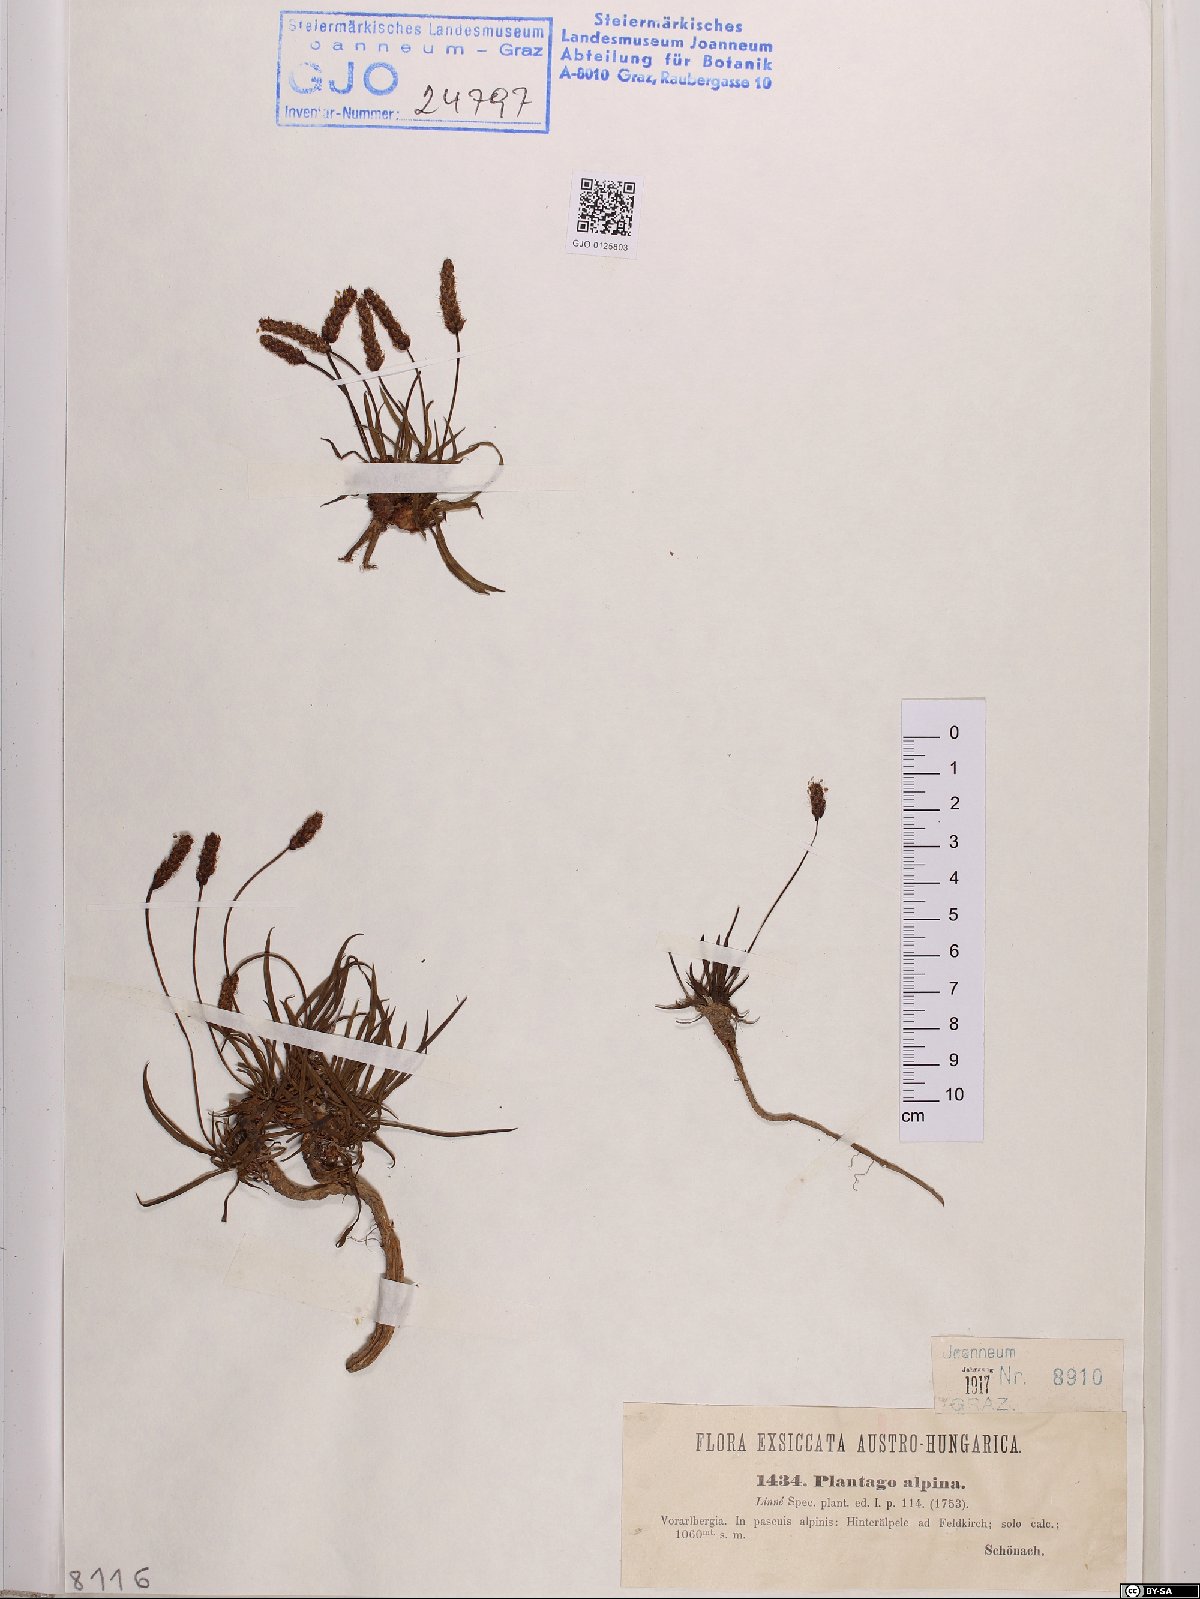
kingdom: Plantae
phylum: Tracheophyta
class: Magnoliopsida
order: Lamiales
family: Plantaginaceae
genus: Plantago
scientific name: Plantago alpina
